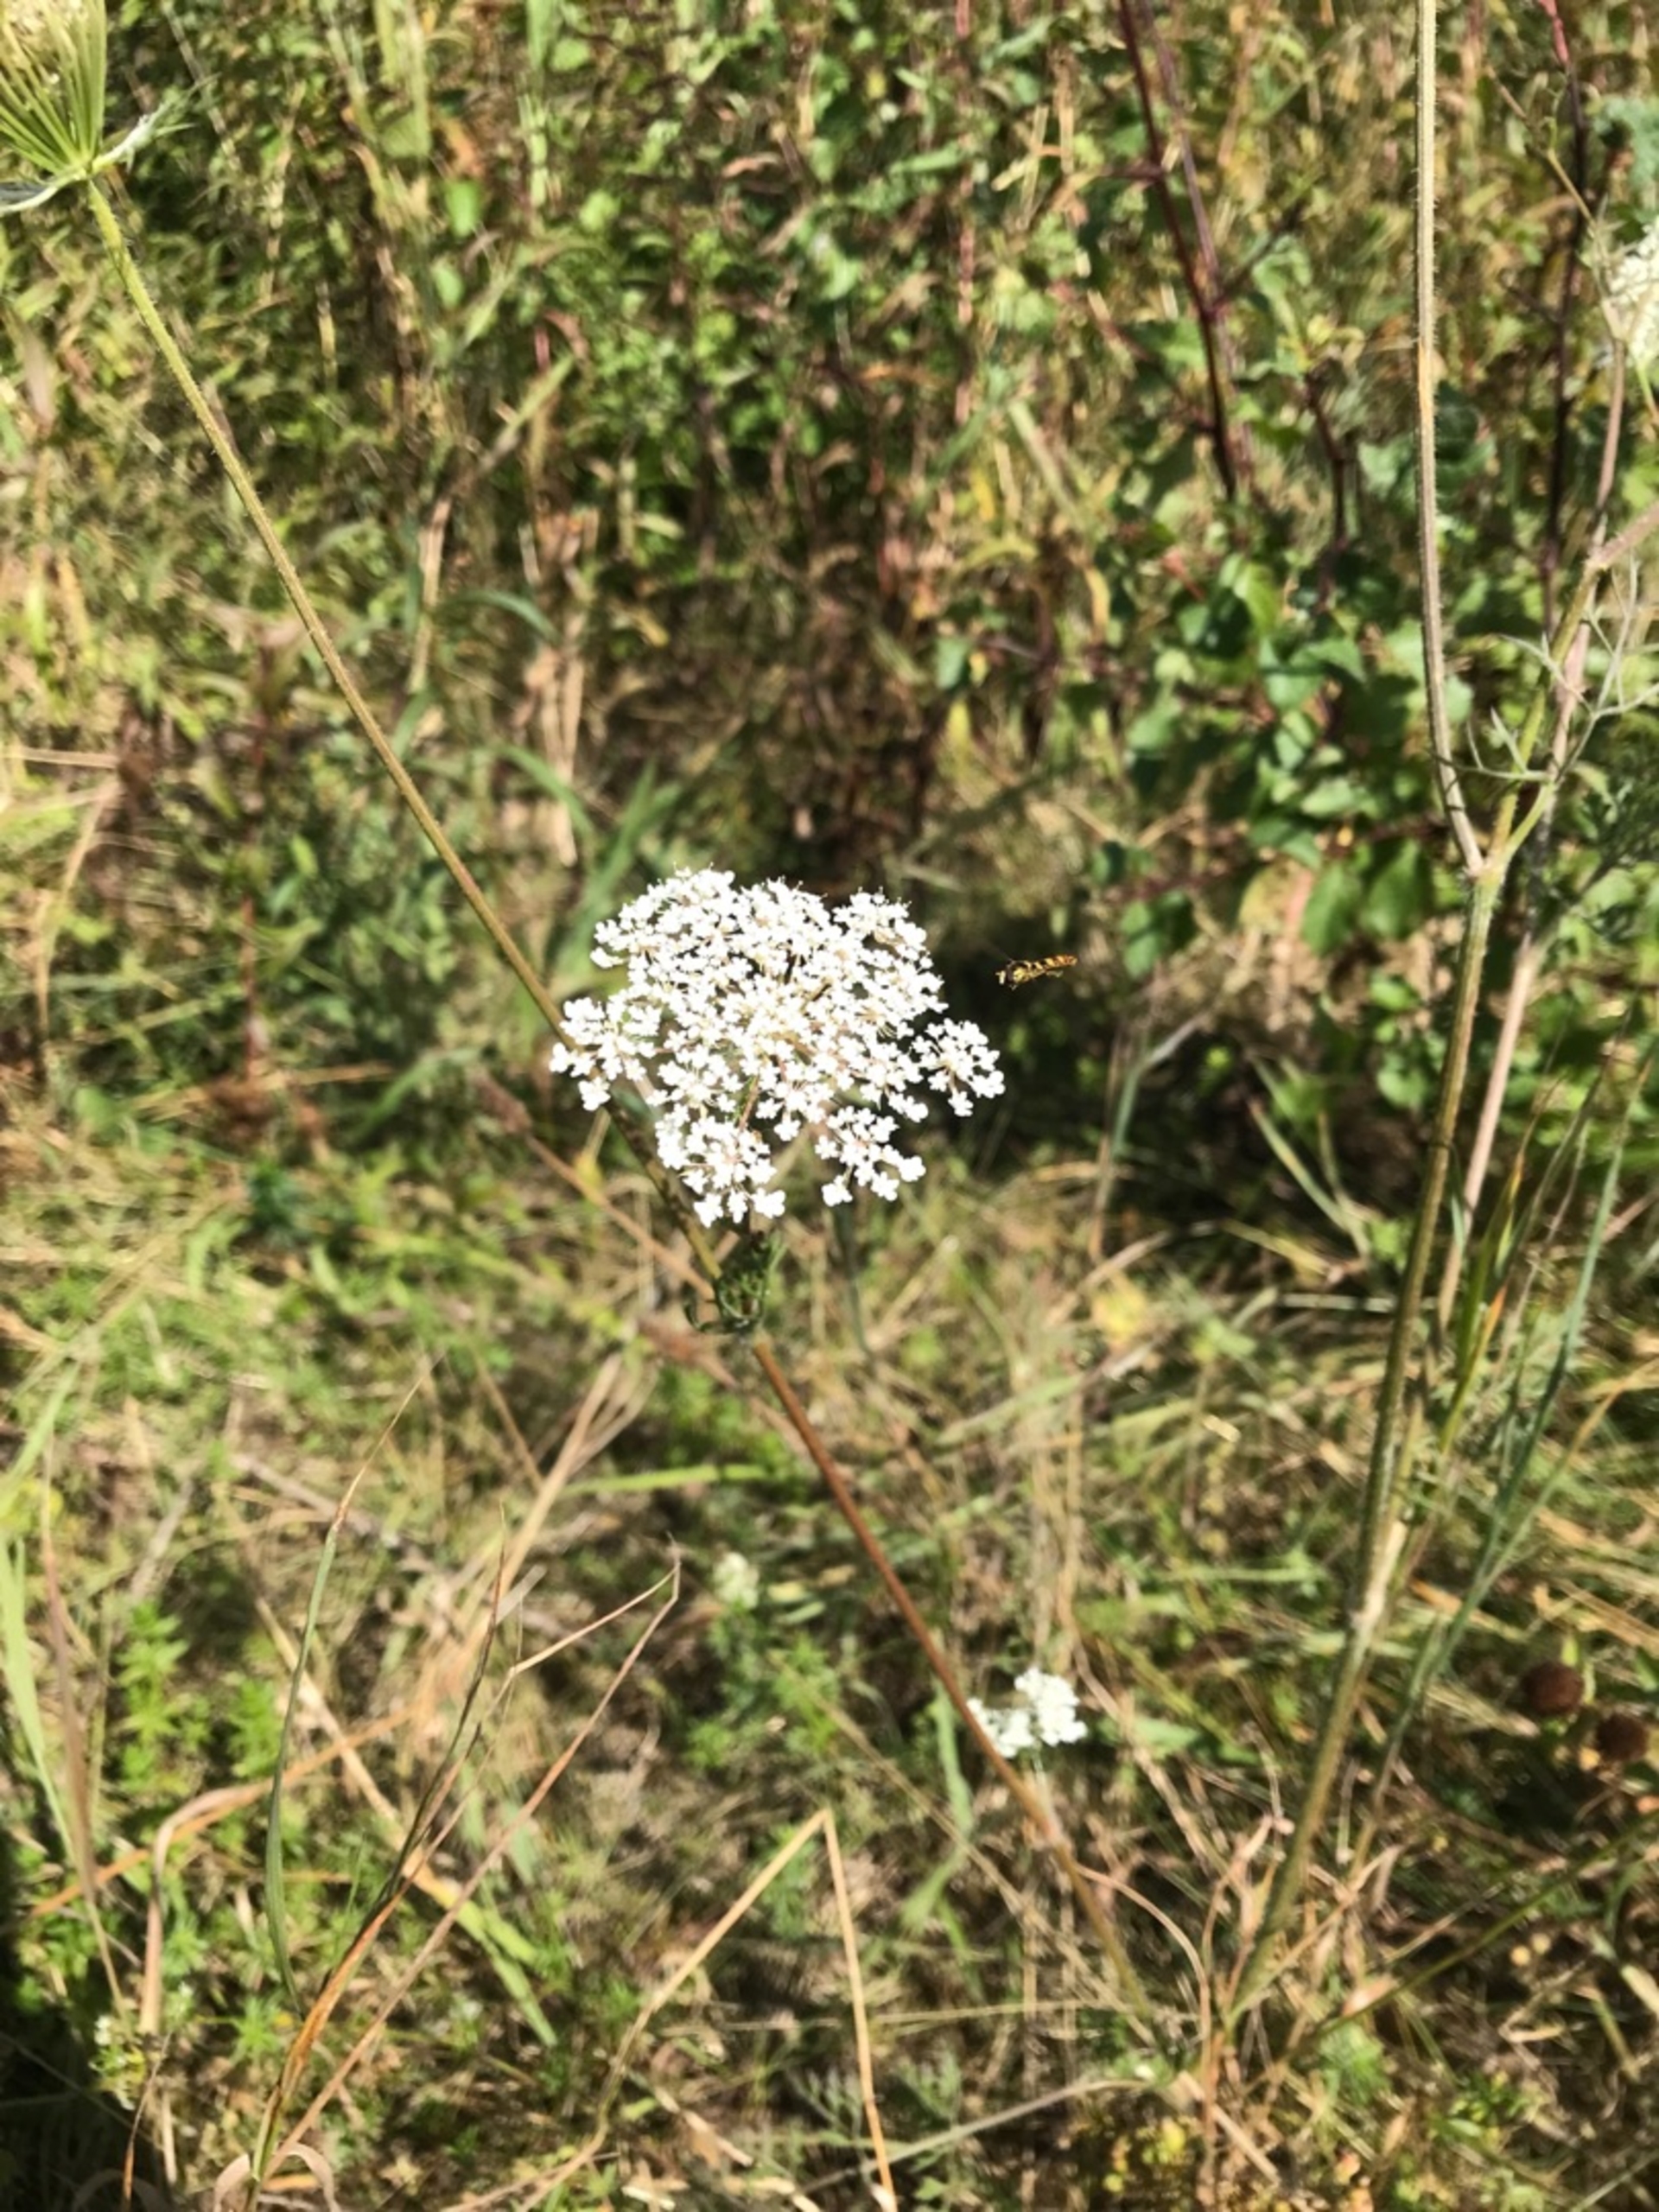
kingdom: Plantae
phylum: Tracheophyta
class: Magnoliopsida
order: Apiales
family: Apiaceae
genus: Daucus
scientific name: Daucus carota
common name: Vild gulerod
